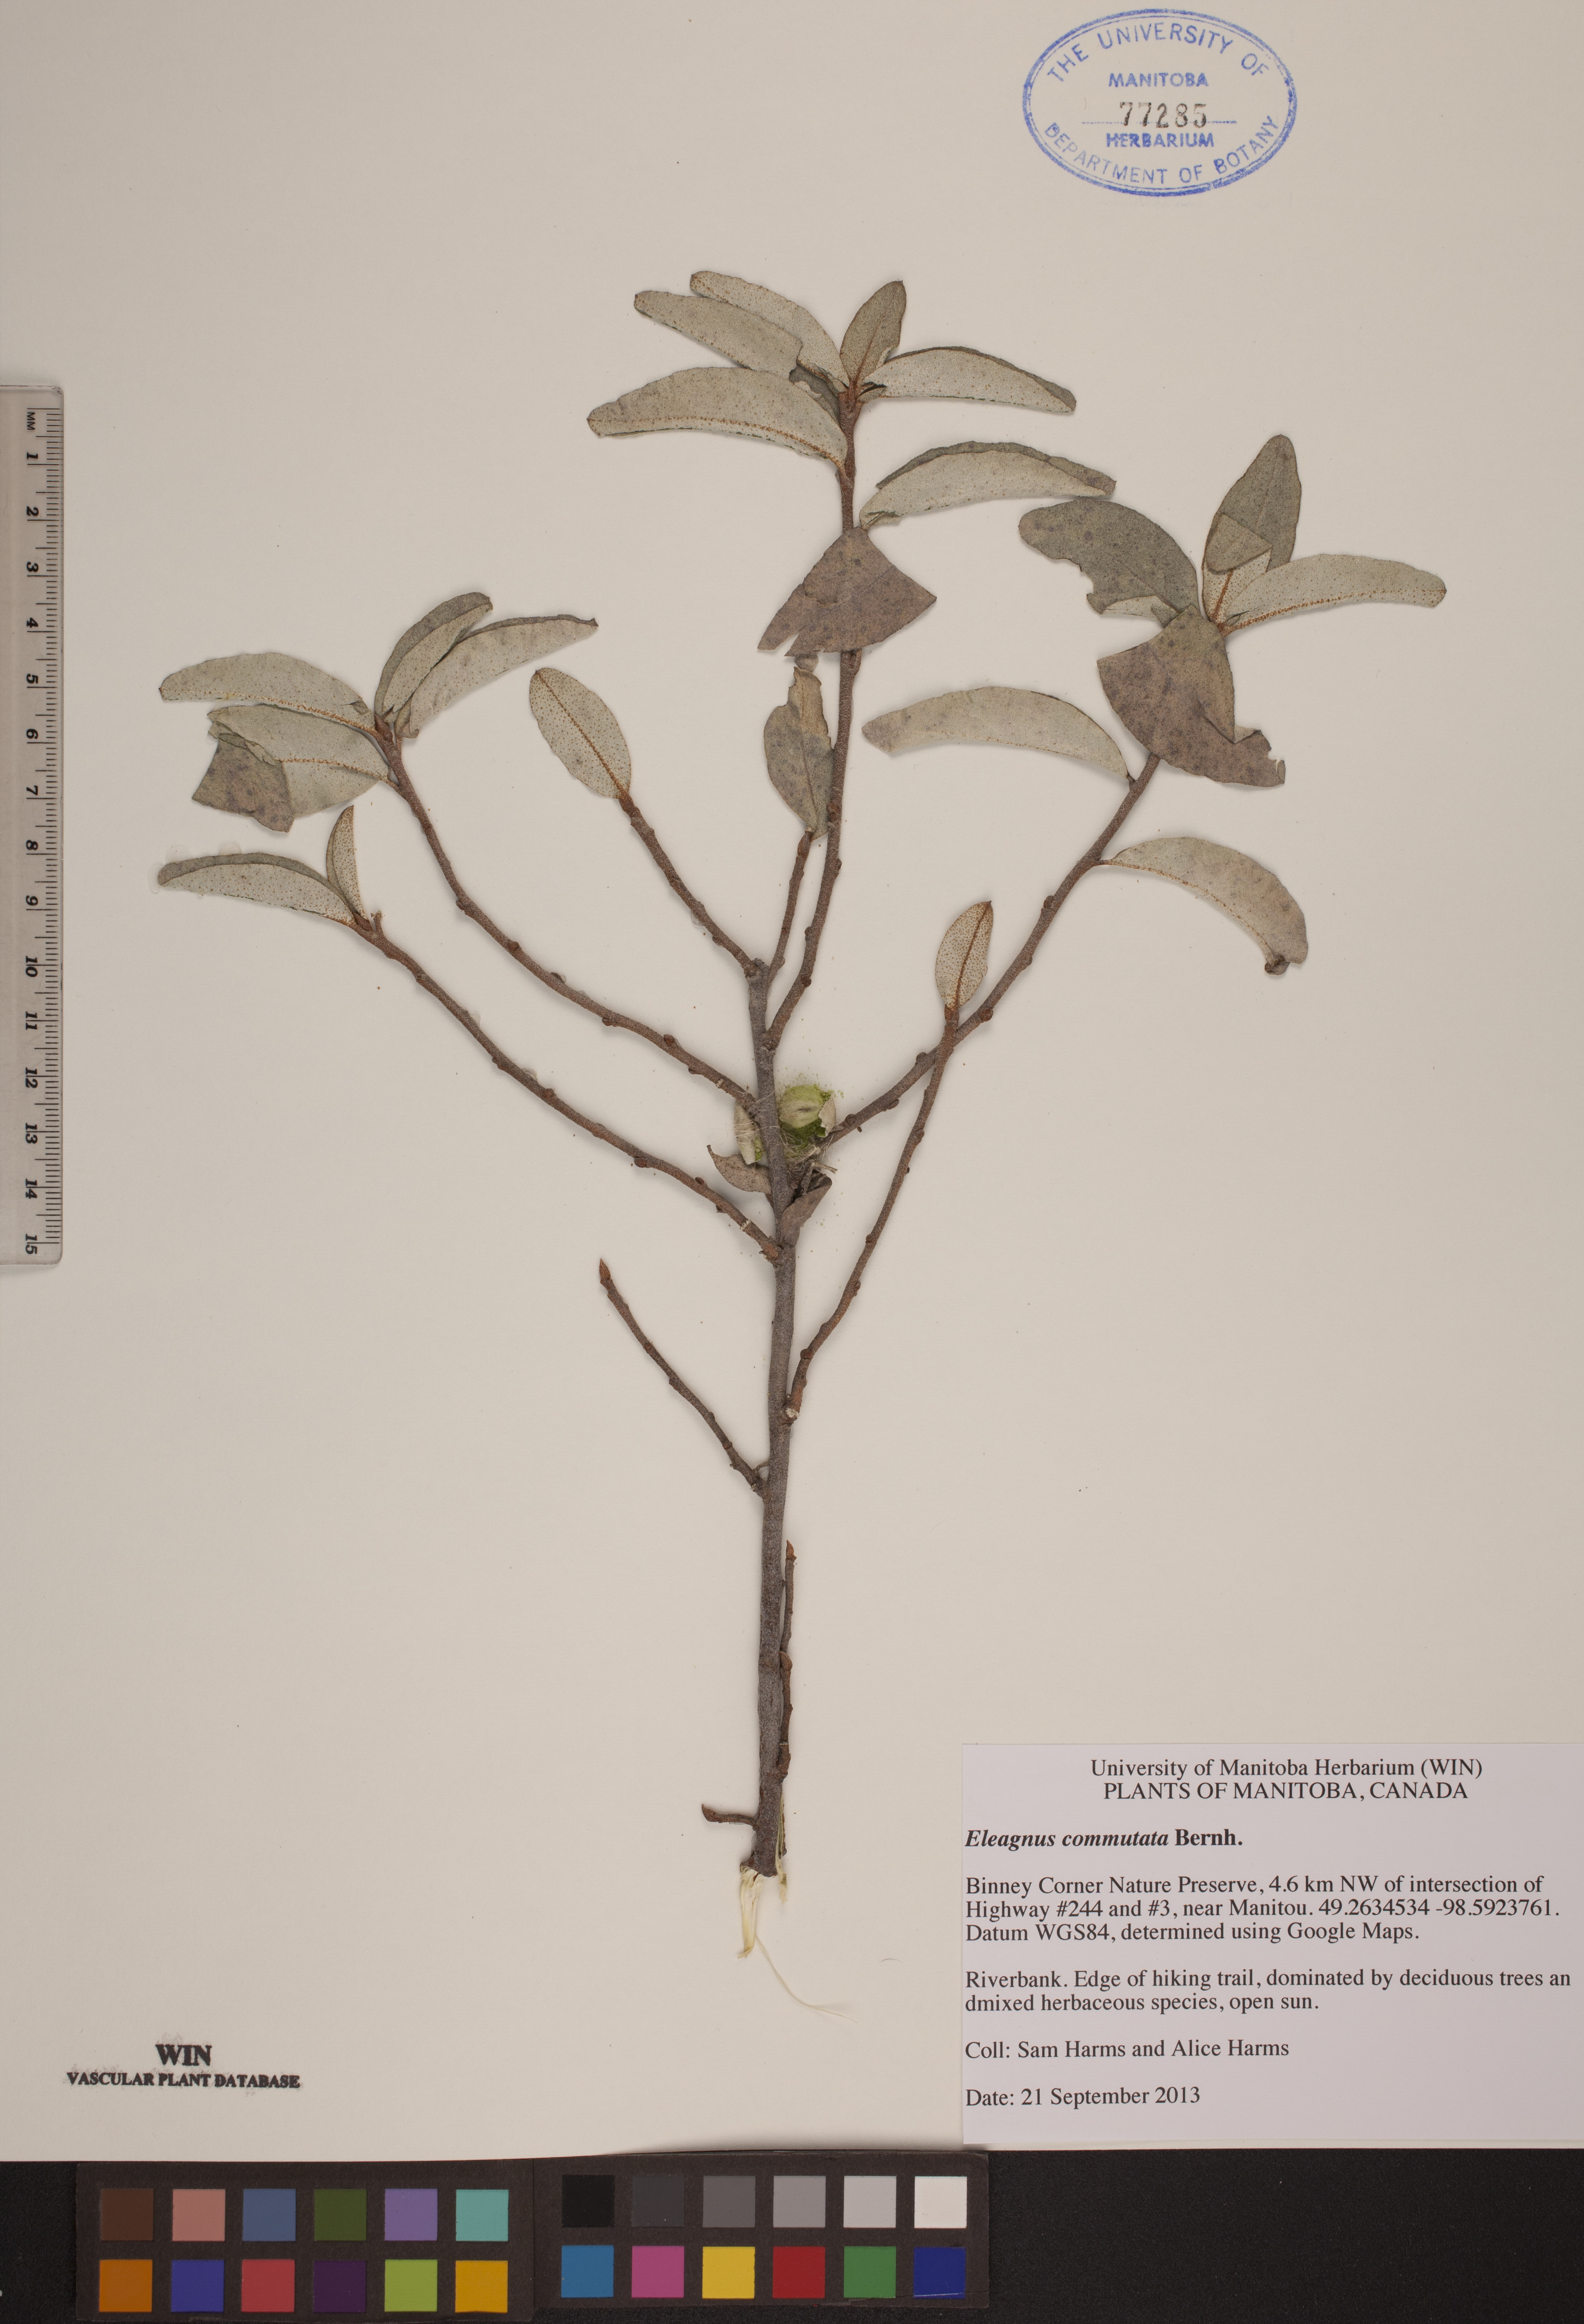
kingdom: Plantae
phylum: Tracheophyta
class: Magnoliopsida
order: Rosales
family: Elaeagnaceae
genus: Elaeagnus
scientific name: Elaeagnus commutata
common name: Silverberry
